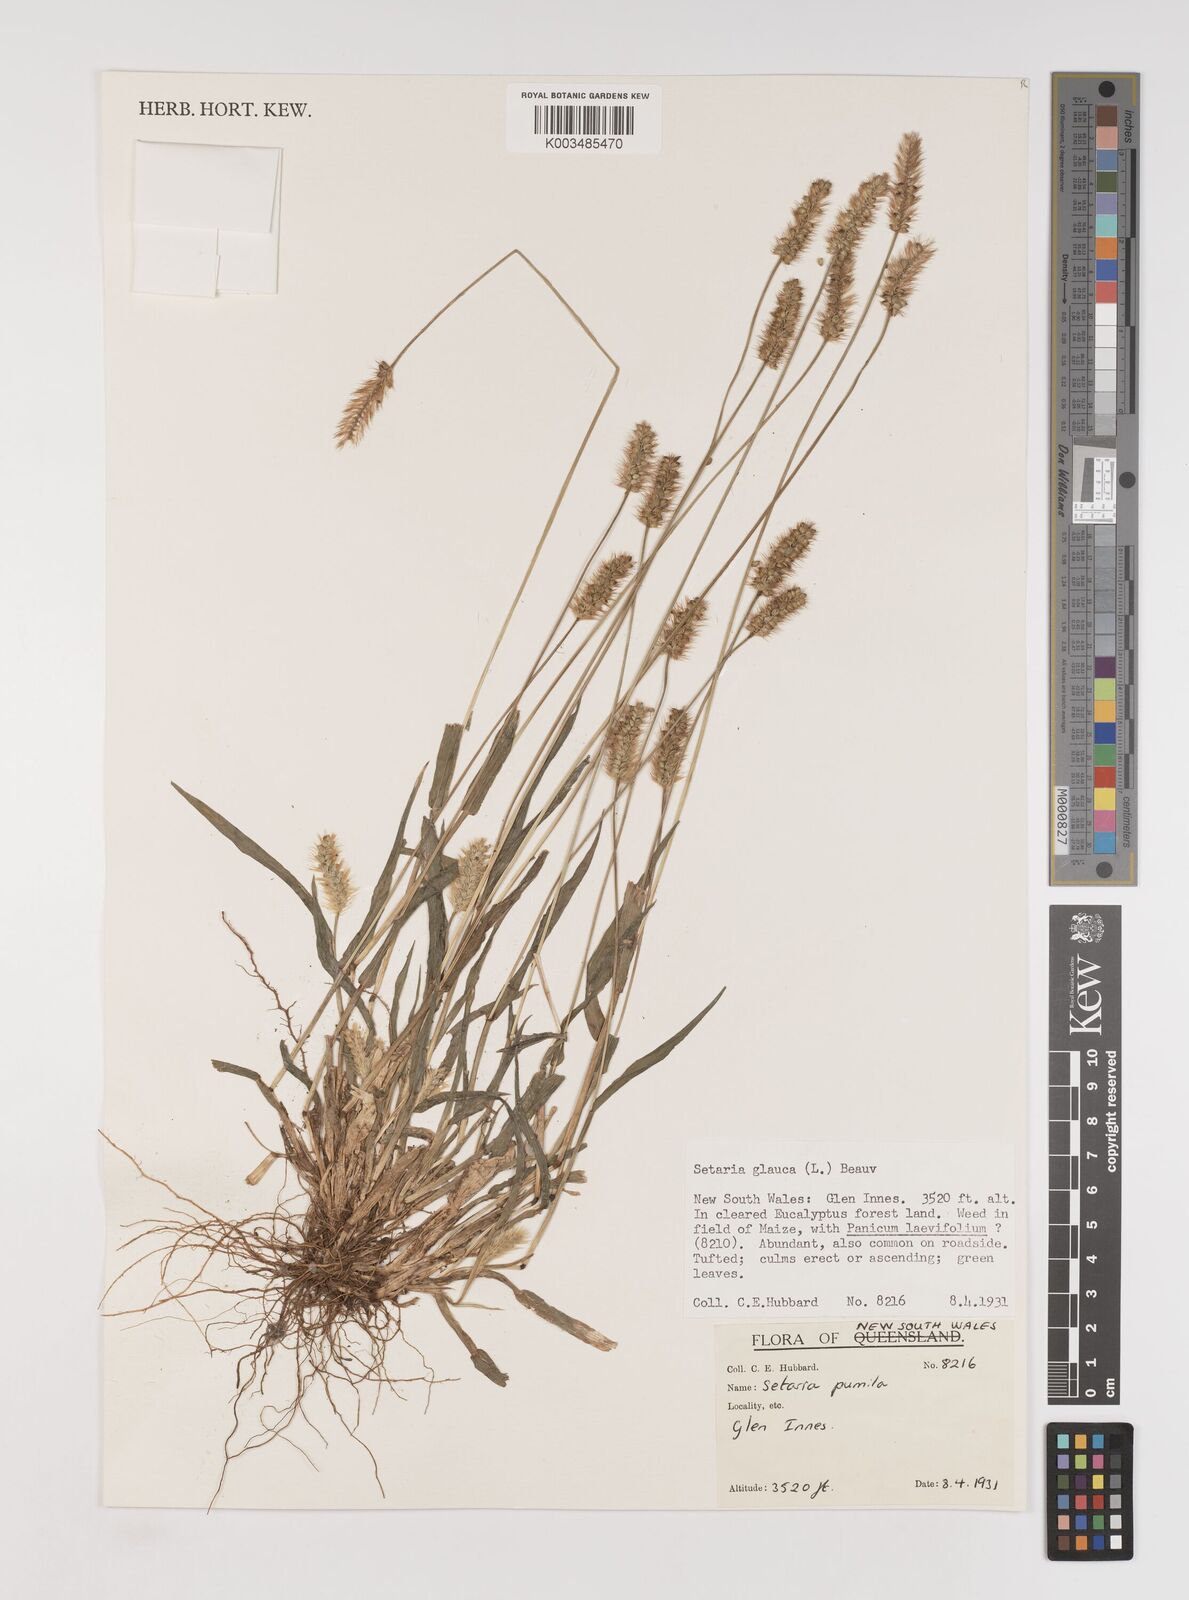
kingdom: Plantae
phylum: Tracheophyta
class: Liliopsida
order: Poales
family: Poaceae
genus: Setaria
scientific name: Setaria pumila
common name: Yellow bristle-grass
